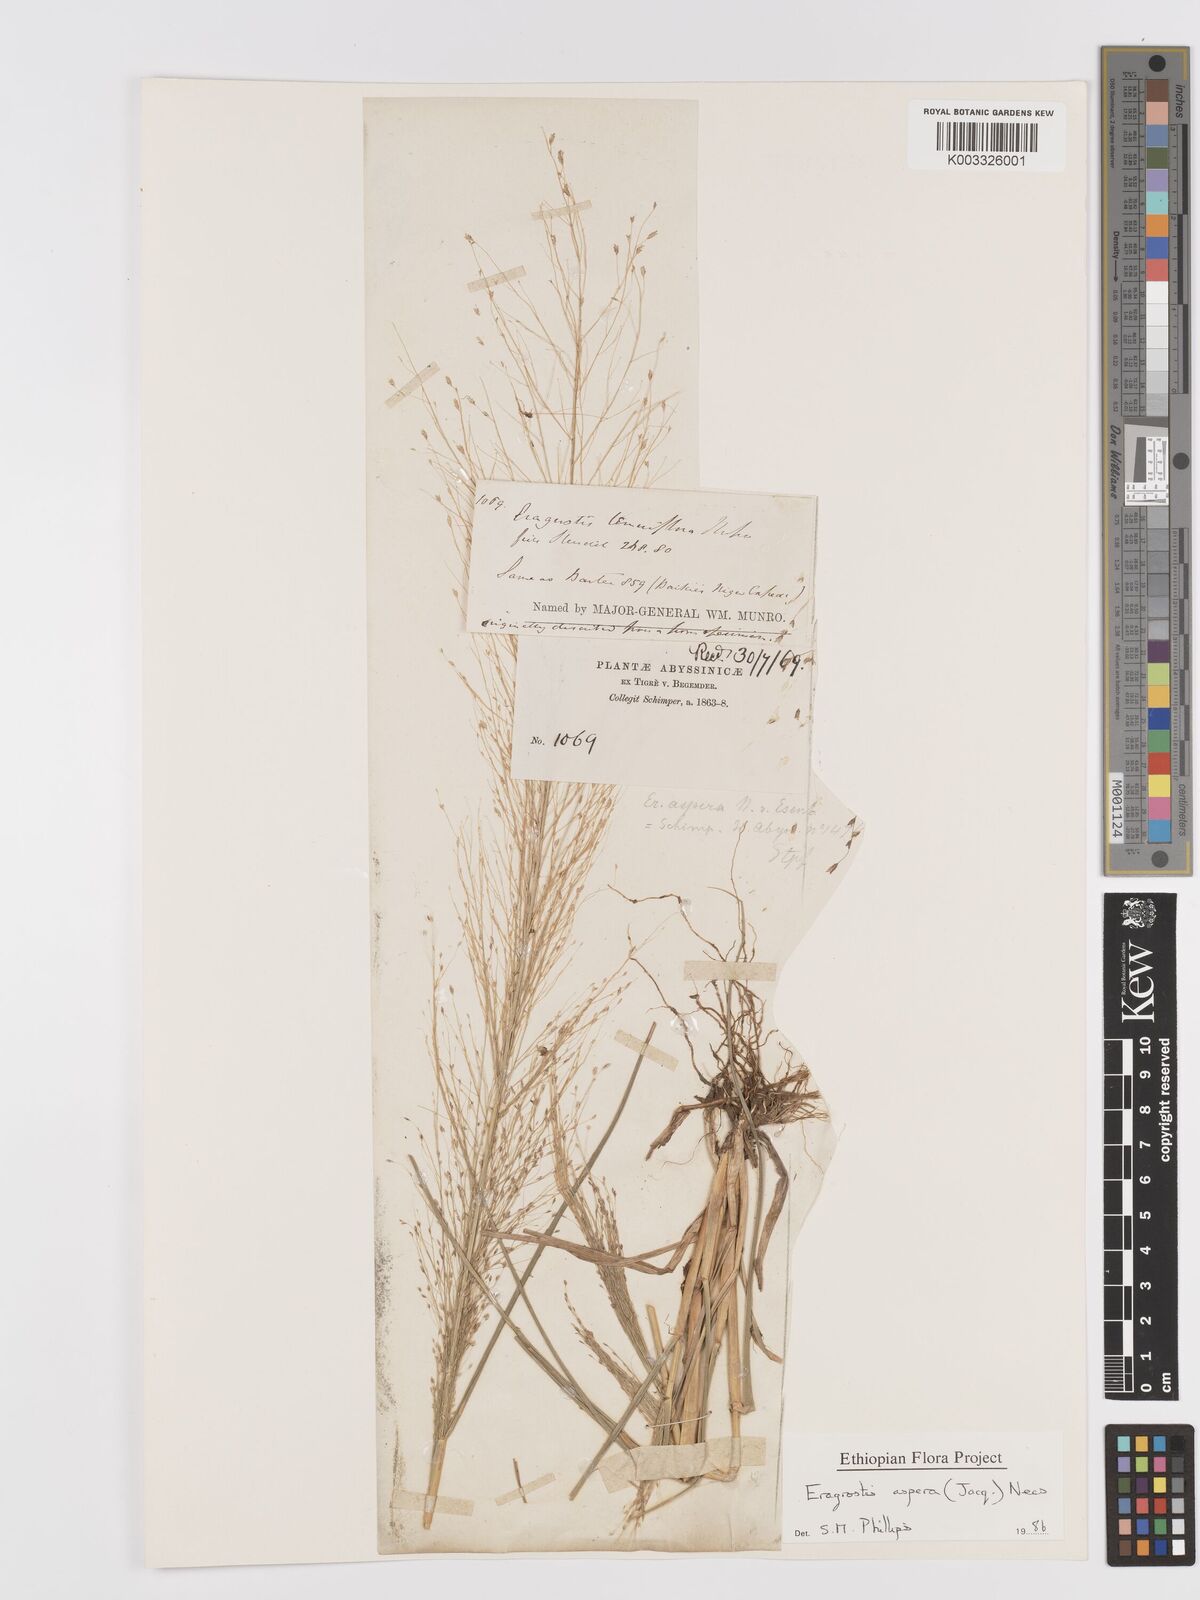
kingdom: Plantae
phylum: Tracheophyta
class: Liliopsida
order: Poales
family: Poaceae
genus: Eragrostis
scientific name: Eragrostis aspera
